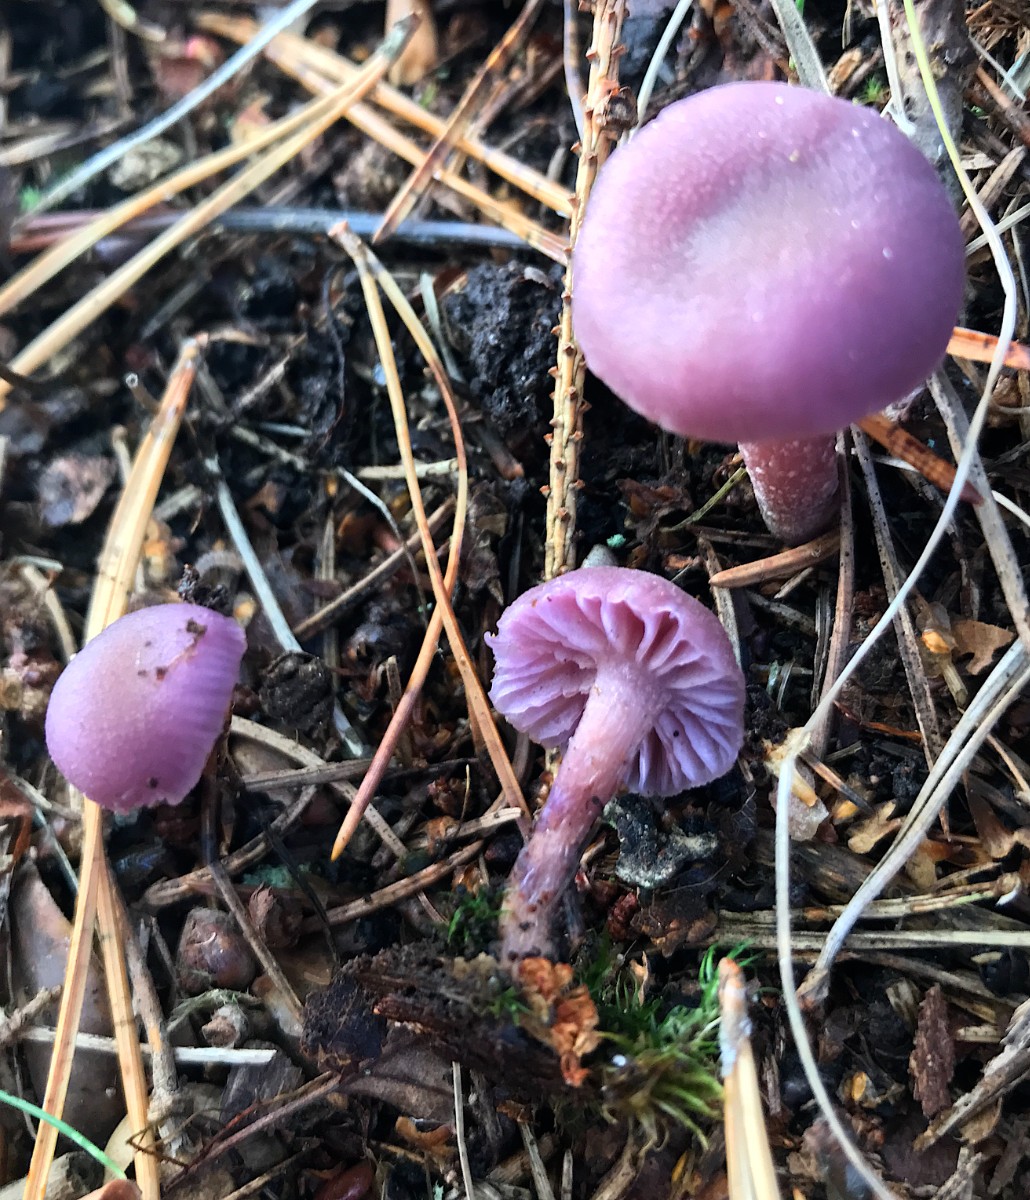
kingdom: Fungi
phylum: Basidiomycota
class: Agaricomycetes
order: Agaricales
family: Hydnangiaceae
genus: Laccaria
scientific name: Laccaria amethystina
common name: violet ametysthat
